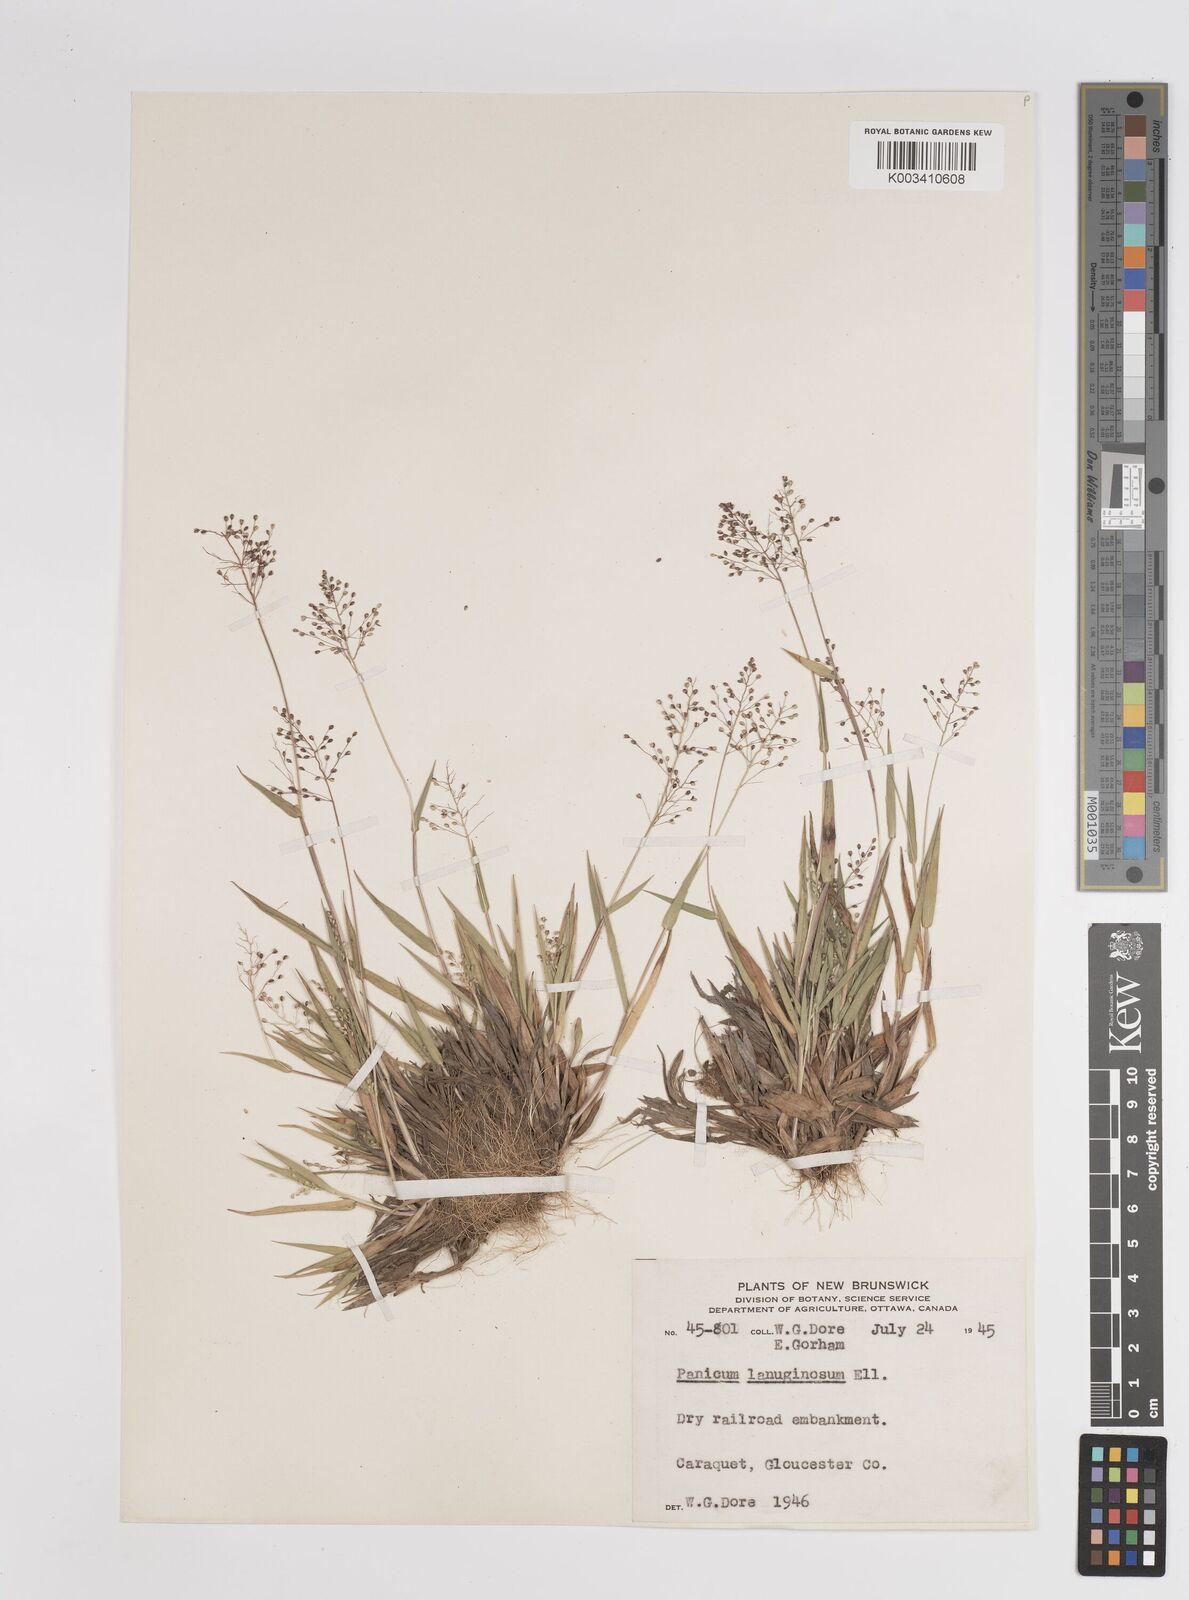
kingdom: Plantae
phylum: Tracheophyta
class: Liliopsida
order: Poales
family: Poaceae
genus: Dichanthelium
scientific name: Dichanthelium lanuginosum
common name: Woolly panicgrass
